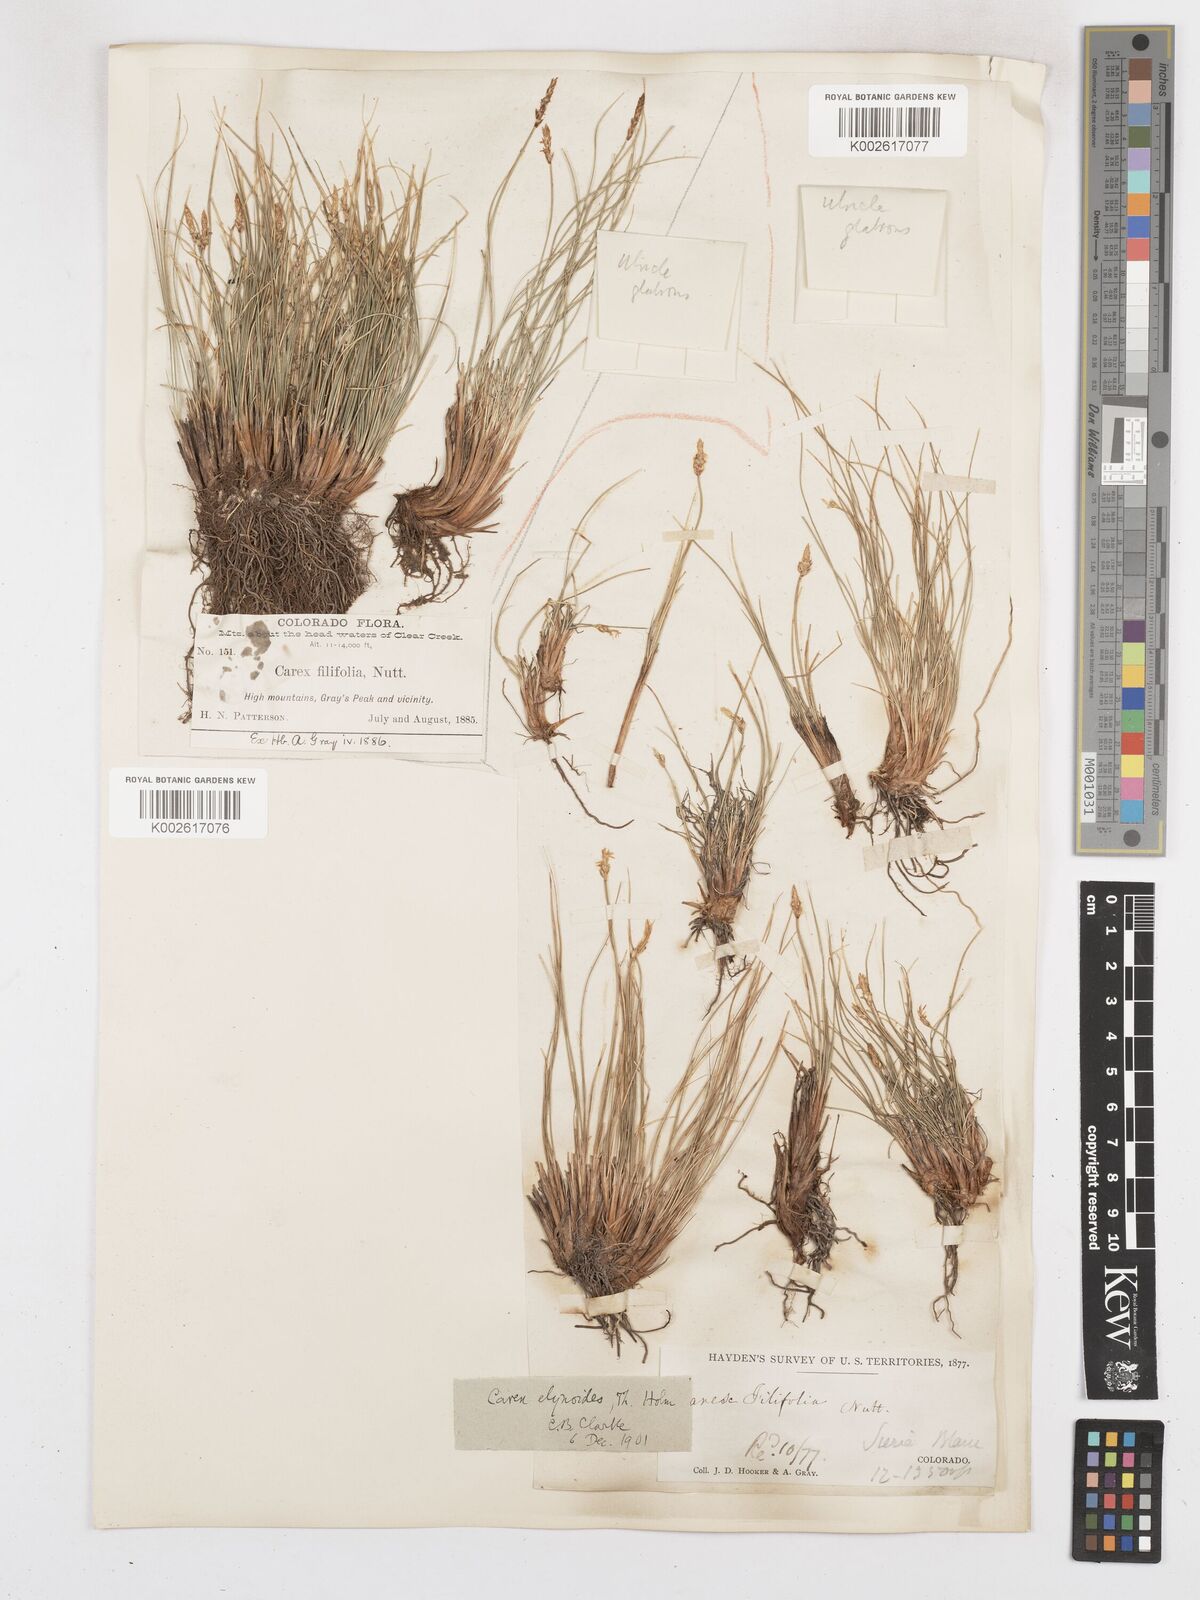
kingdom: Plantae
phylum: Tracheophyta
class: Liliopsida
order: Poales
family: Cyperaceae
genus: Carex
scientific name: Carex filifolia
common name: Threadleaf sedge
